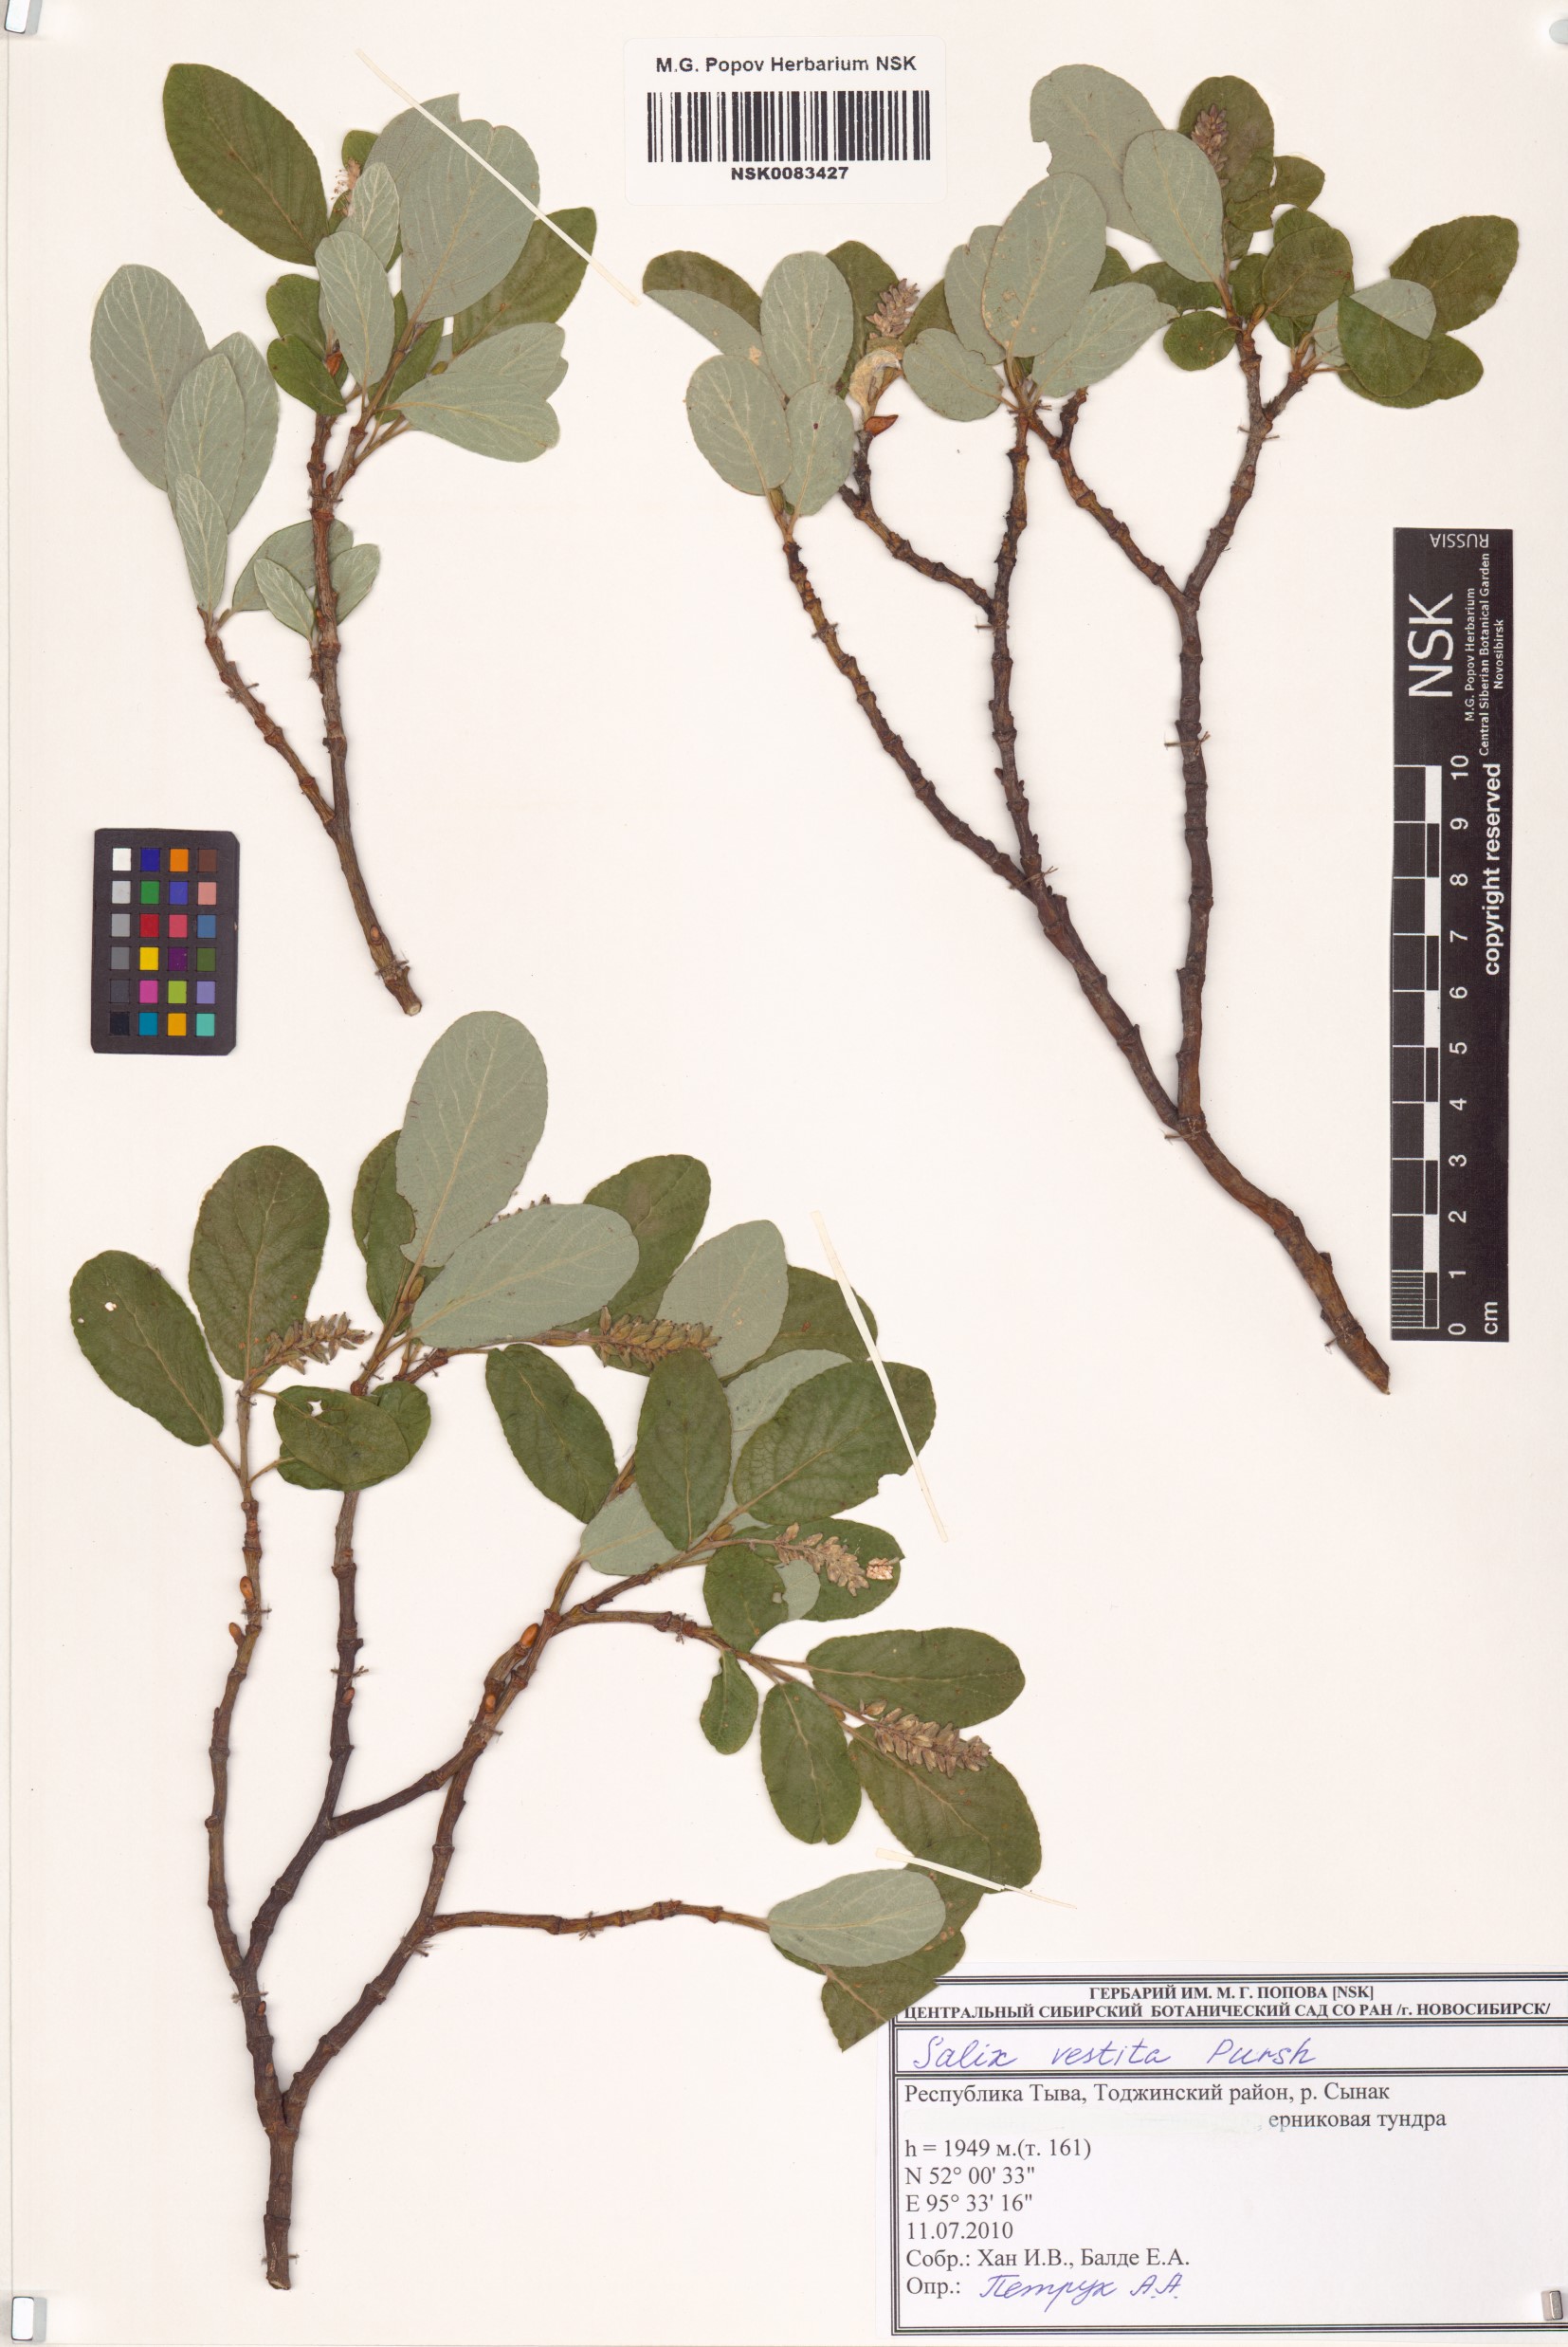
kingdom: Plantae
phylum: Tracheophyta
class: Magnoliopsida
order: Malpighiales
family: Salicaceae
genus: Salix
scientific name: Salix vestita
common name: Hairy willow
